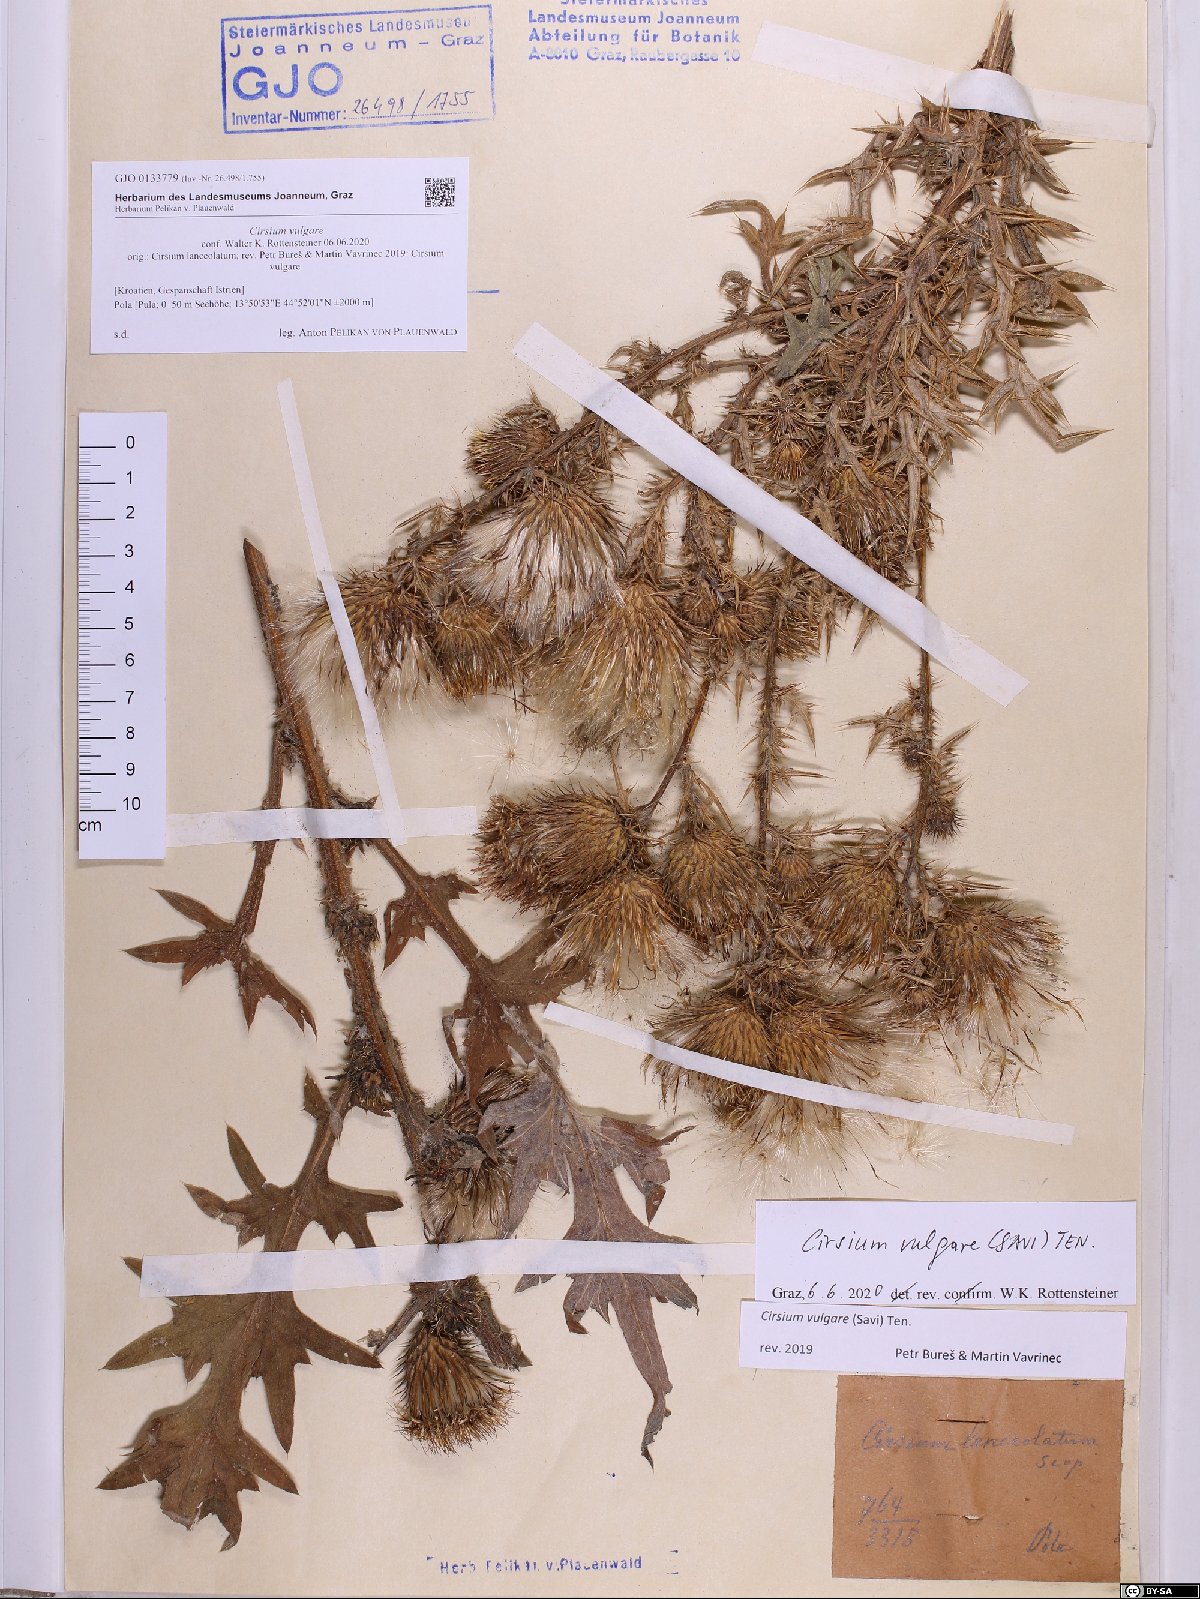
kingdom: Plantae
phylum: Tracheophyta
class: Magnoliopsida
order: Asterales
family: Asteraceae
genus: Cirsium
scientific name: Cirsium vulgare
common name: Bull thistle
